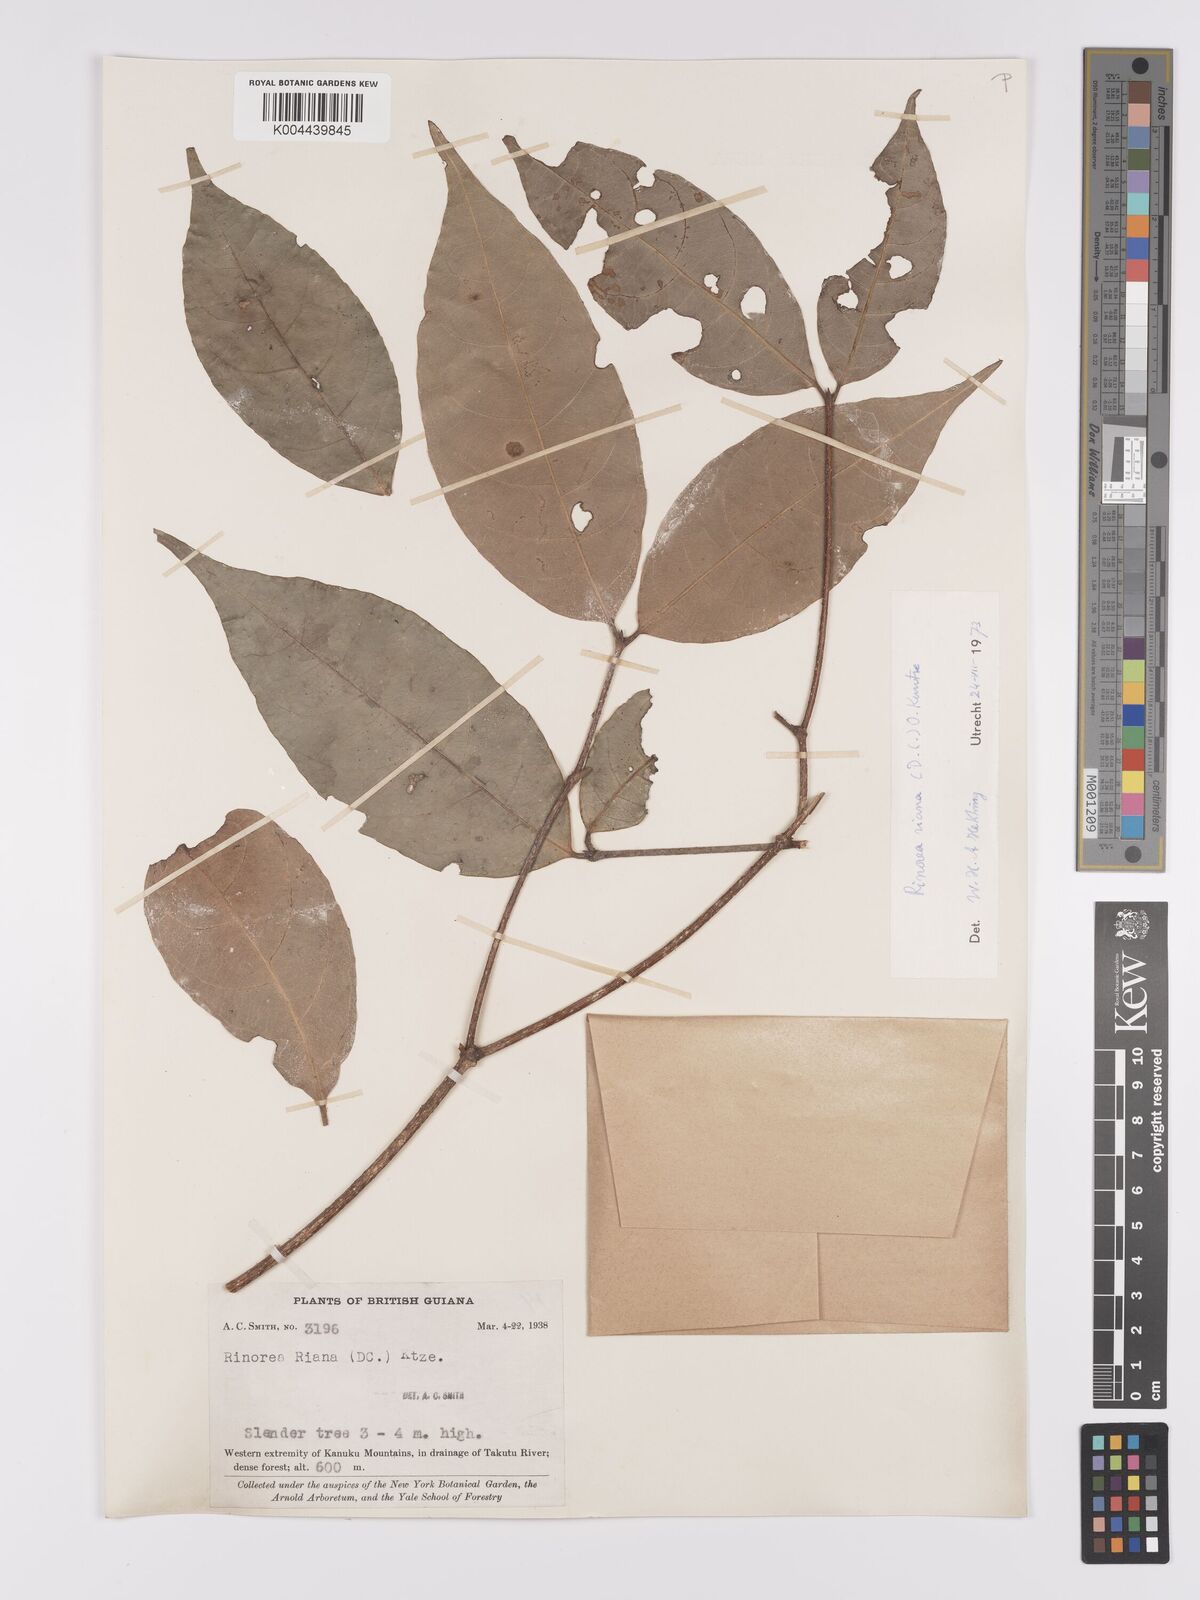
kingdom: Plantae
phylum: Tracheophyta
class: Magnoliopsida
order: Malpighiales
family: Violaceae
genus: Rinorea
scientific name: Rinorea riana
